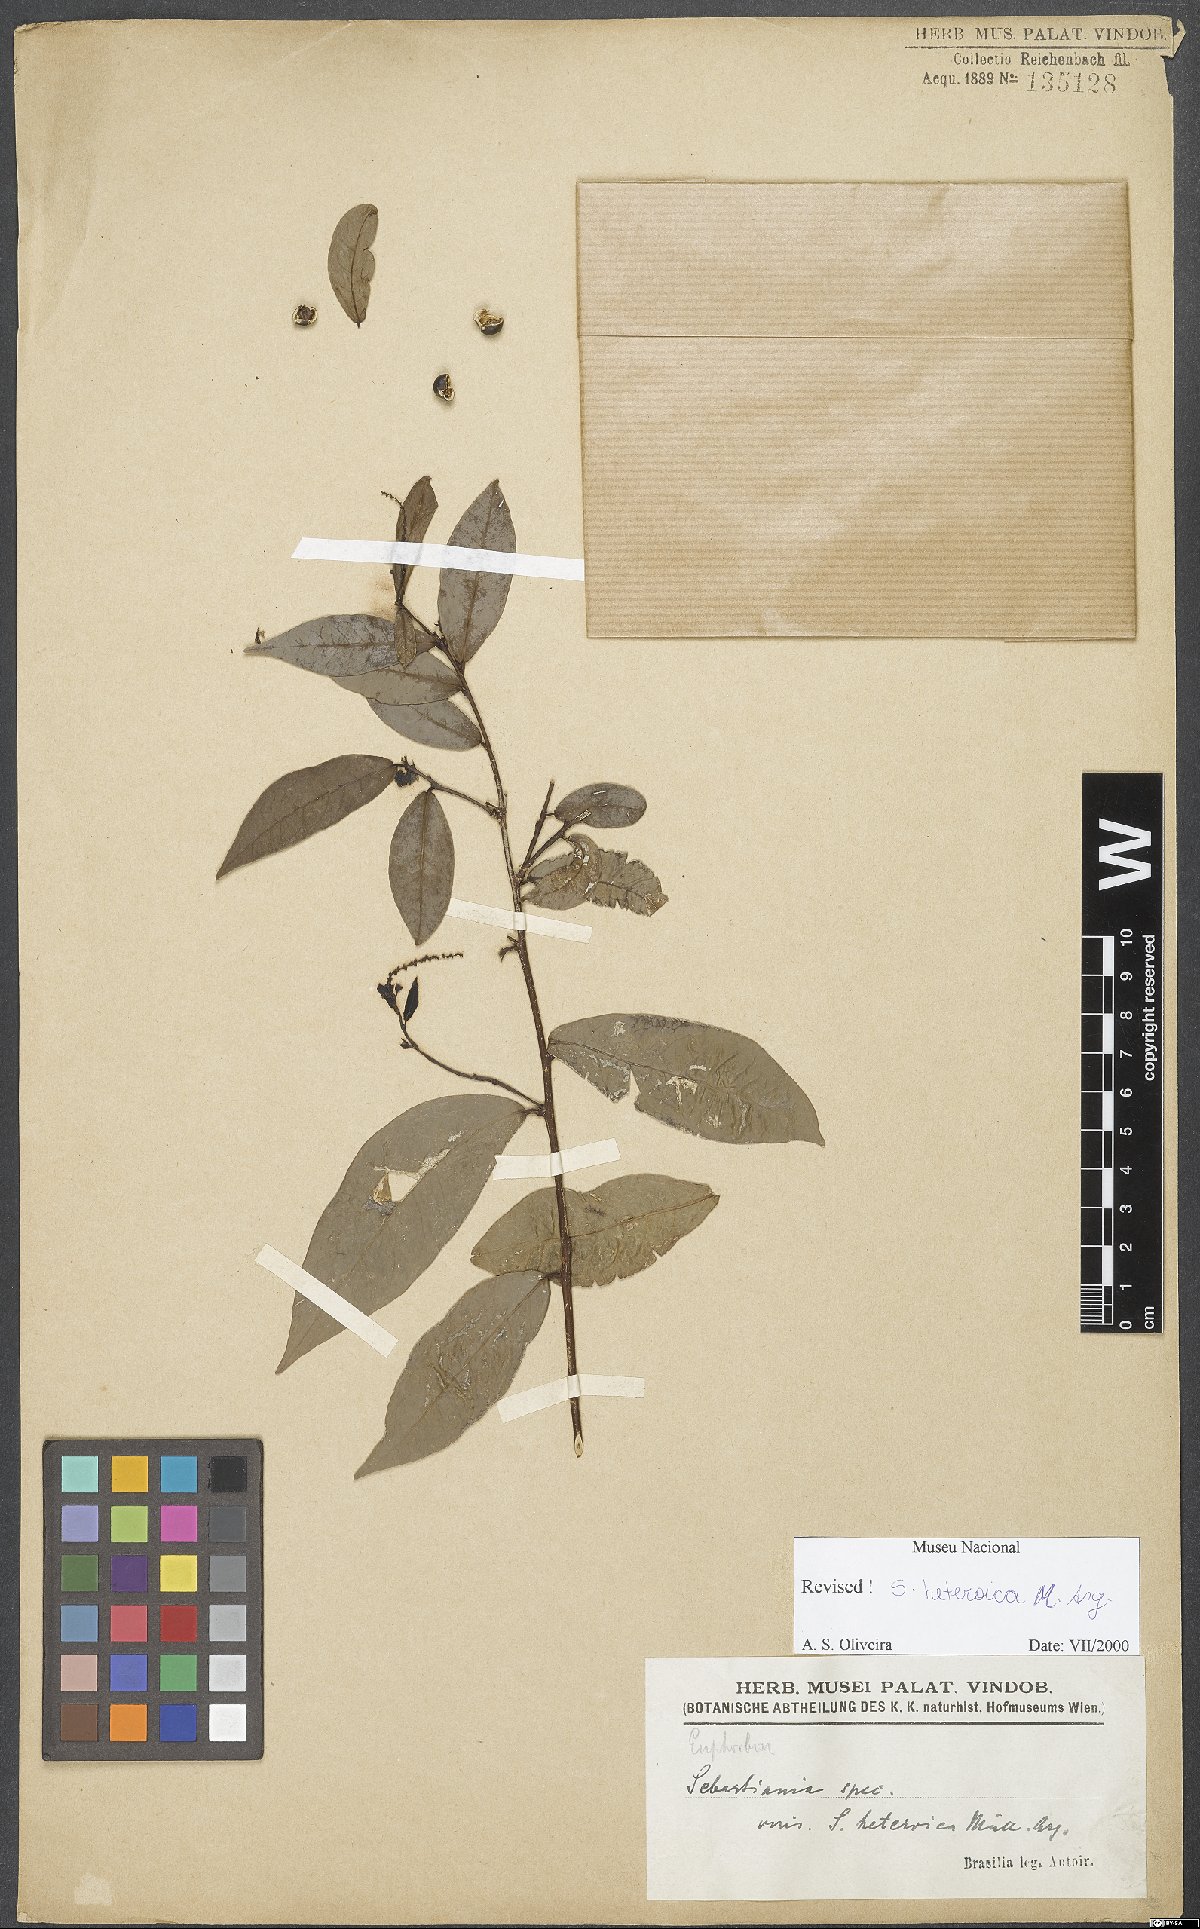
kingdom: Plantae
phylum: Tracheophyta
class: Magnoliopsida
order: Malpighiales
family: Euphorbiaceae
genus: Sebastiania
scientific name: Sebastiania heteroica
